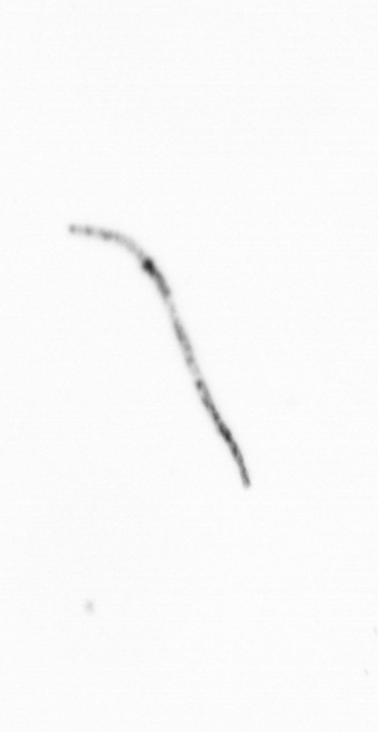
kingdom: Chromista
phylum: Ochrophyta
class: Bacillariophyceae
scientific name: Bacillariophyceae
